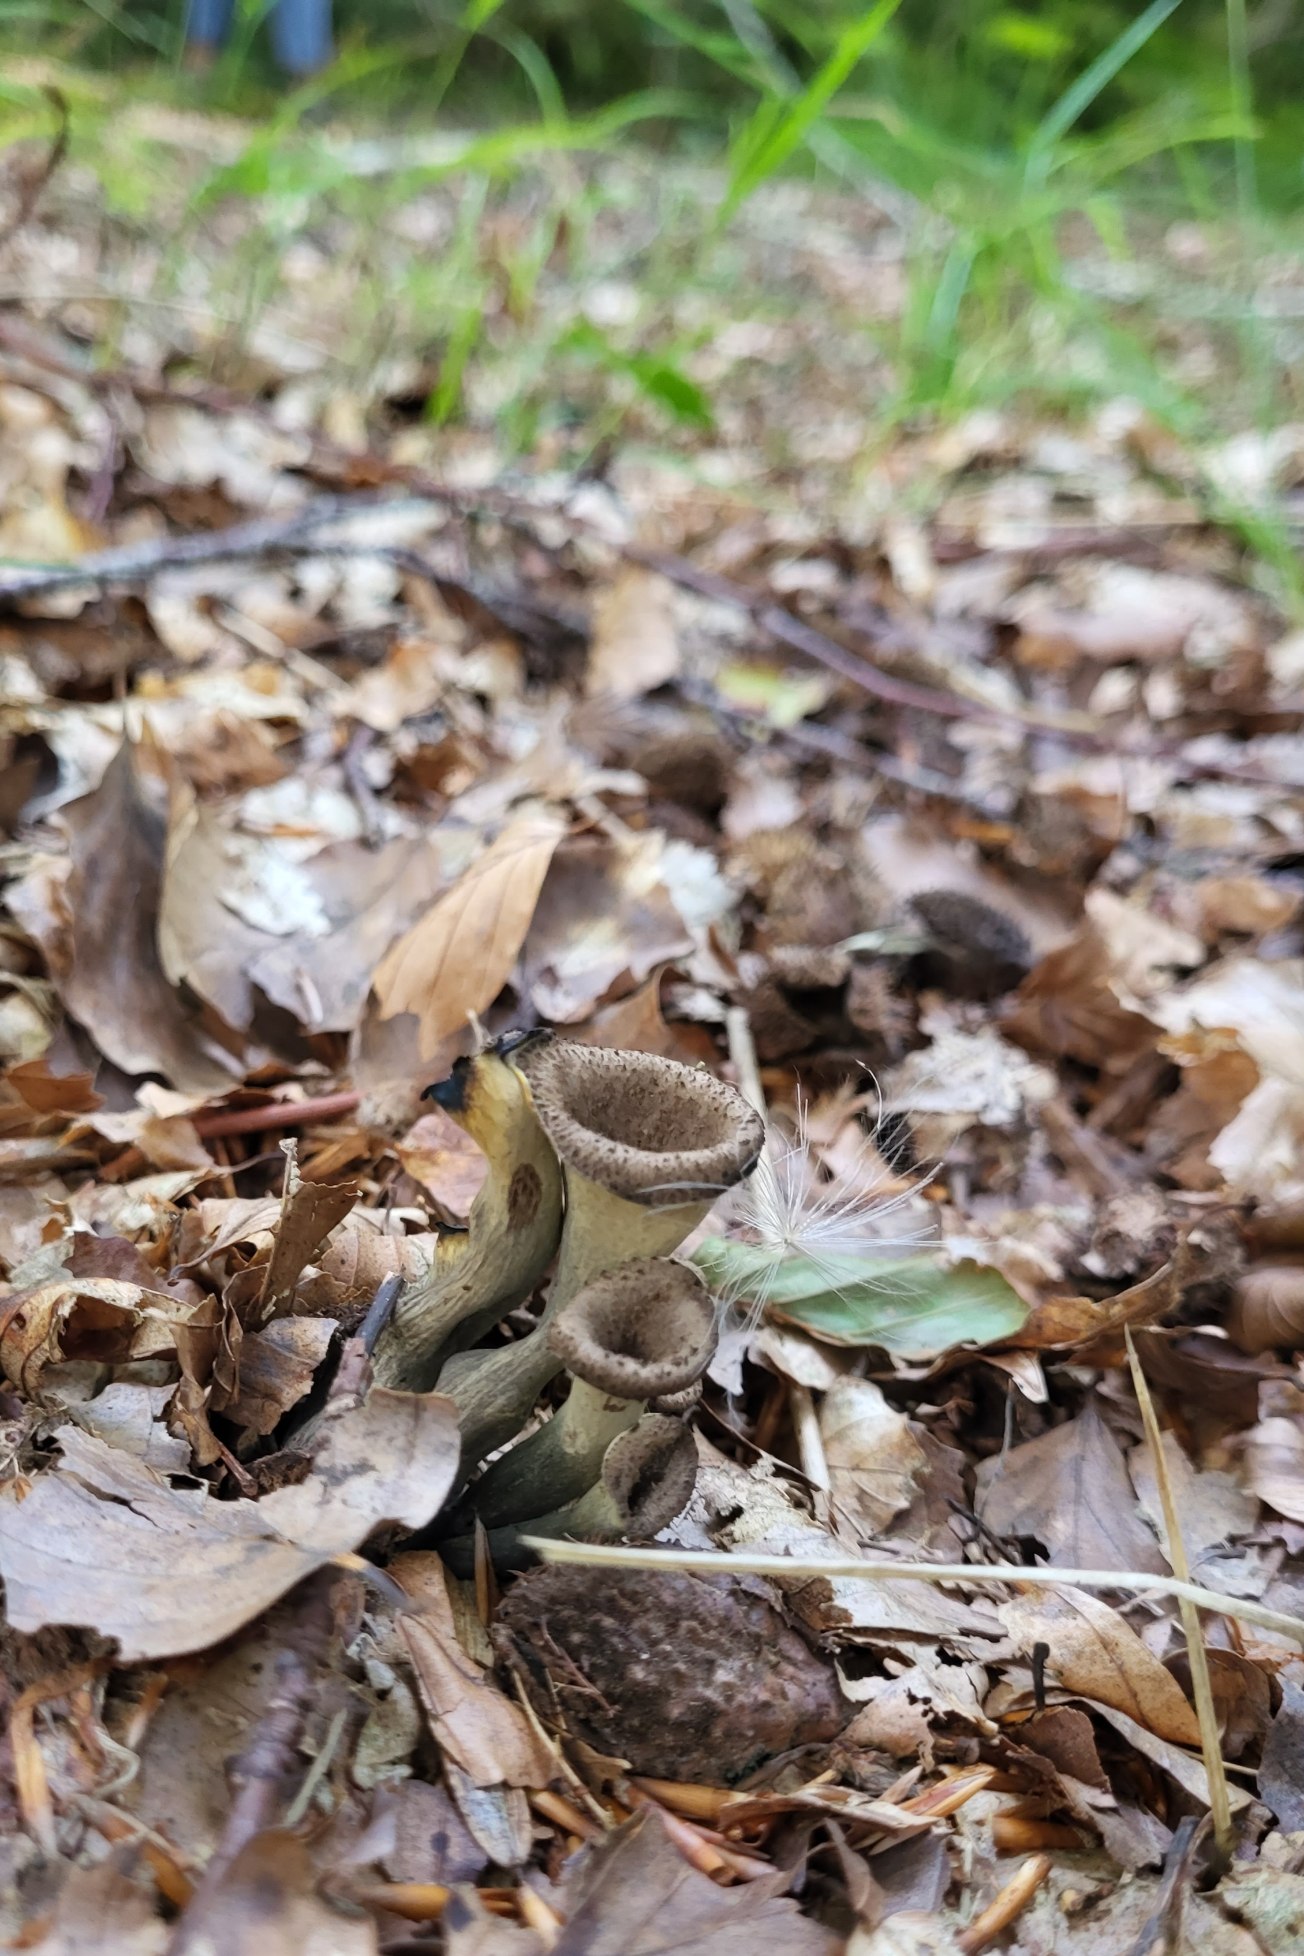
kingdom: Fungi
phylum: Basidiomycota
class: Agaricomycetes
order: Cantharellales
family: Hydnaceae
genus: Craterellus
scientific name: Craterellus cornucopioides
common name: Trompetsvamp
